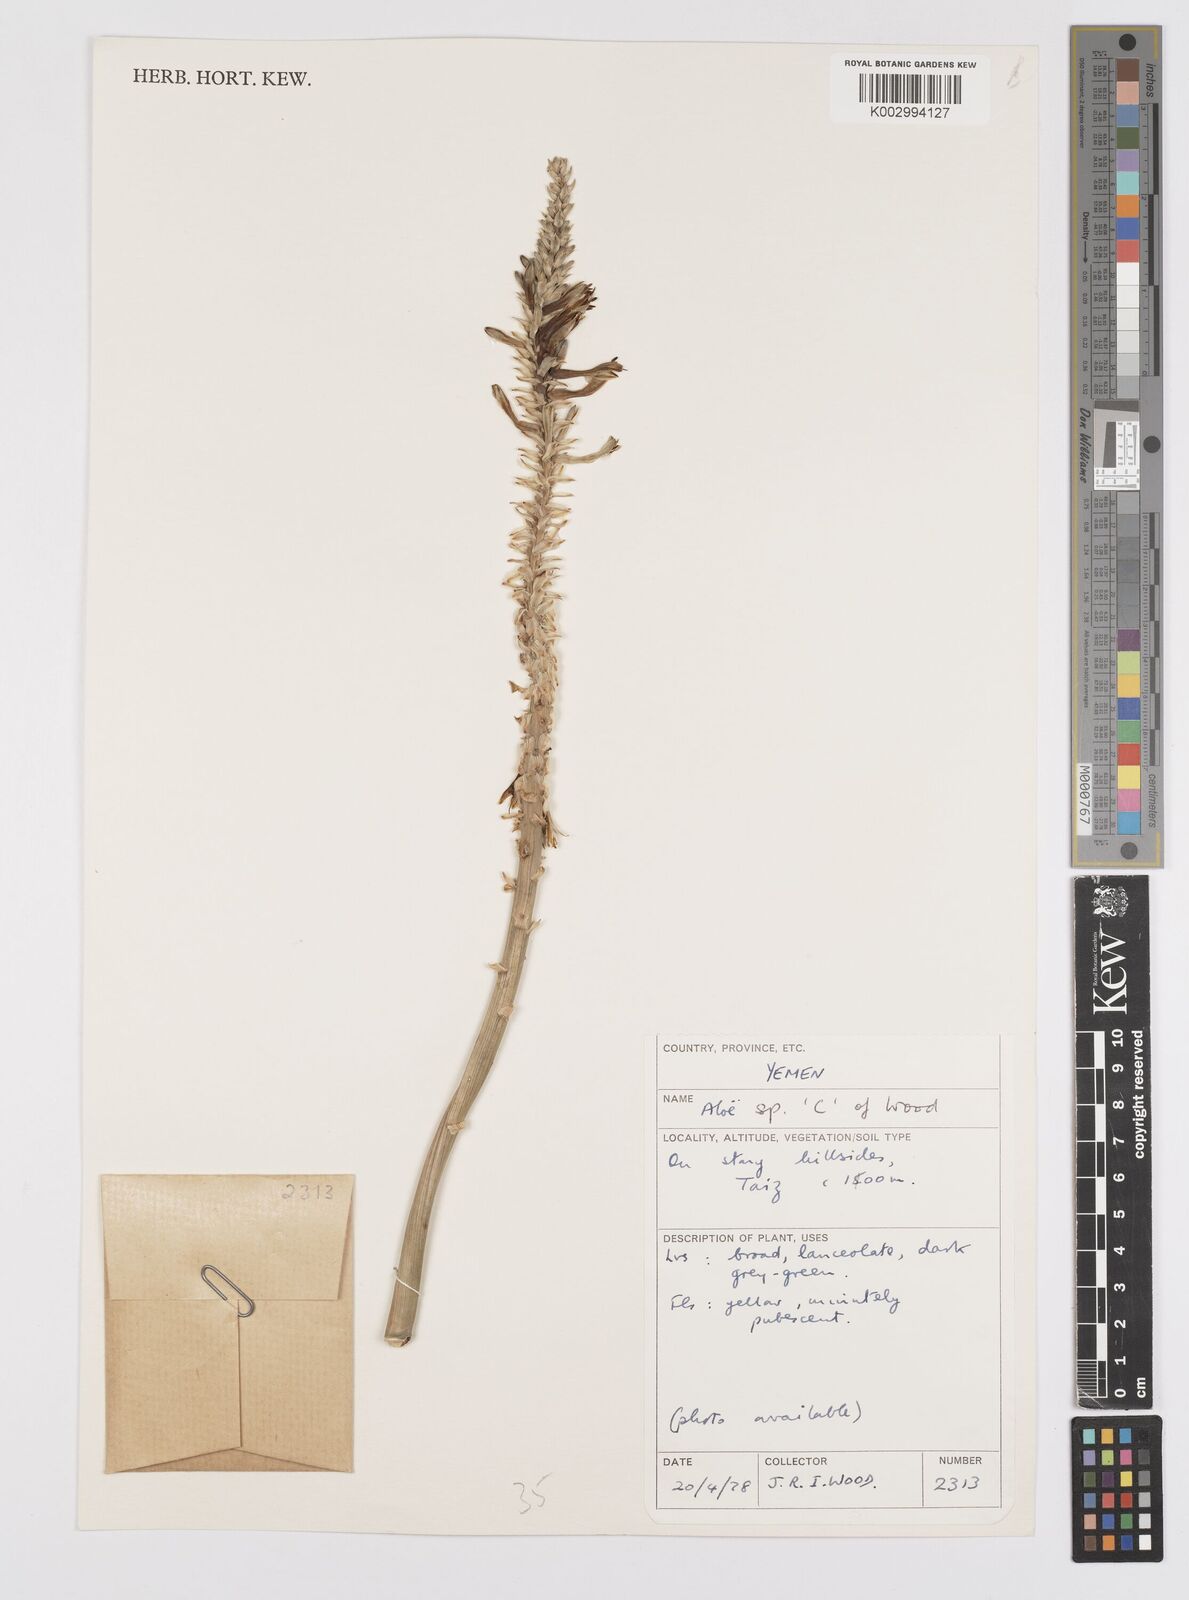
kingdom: Plantae
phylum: Tracheophyta
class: Liliopsida
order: Asparagales
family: Asphodelaceae
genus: Aloe
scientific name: Aloe niebuhriana
